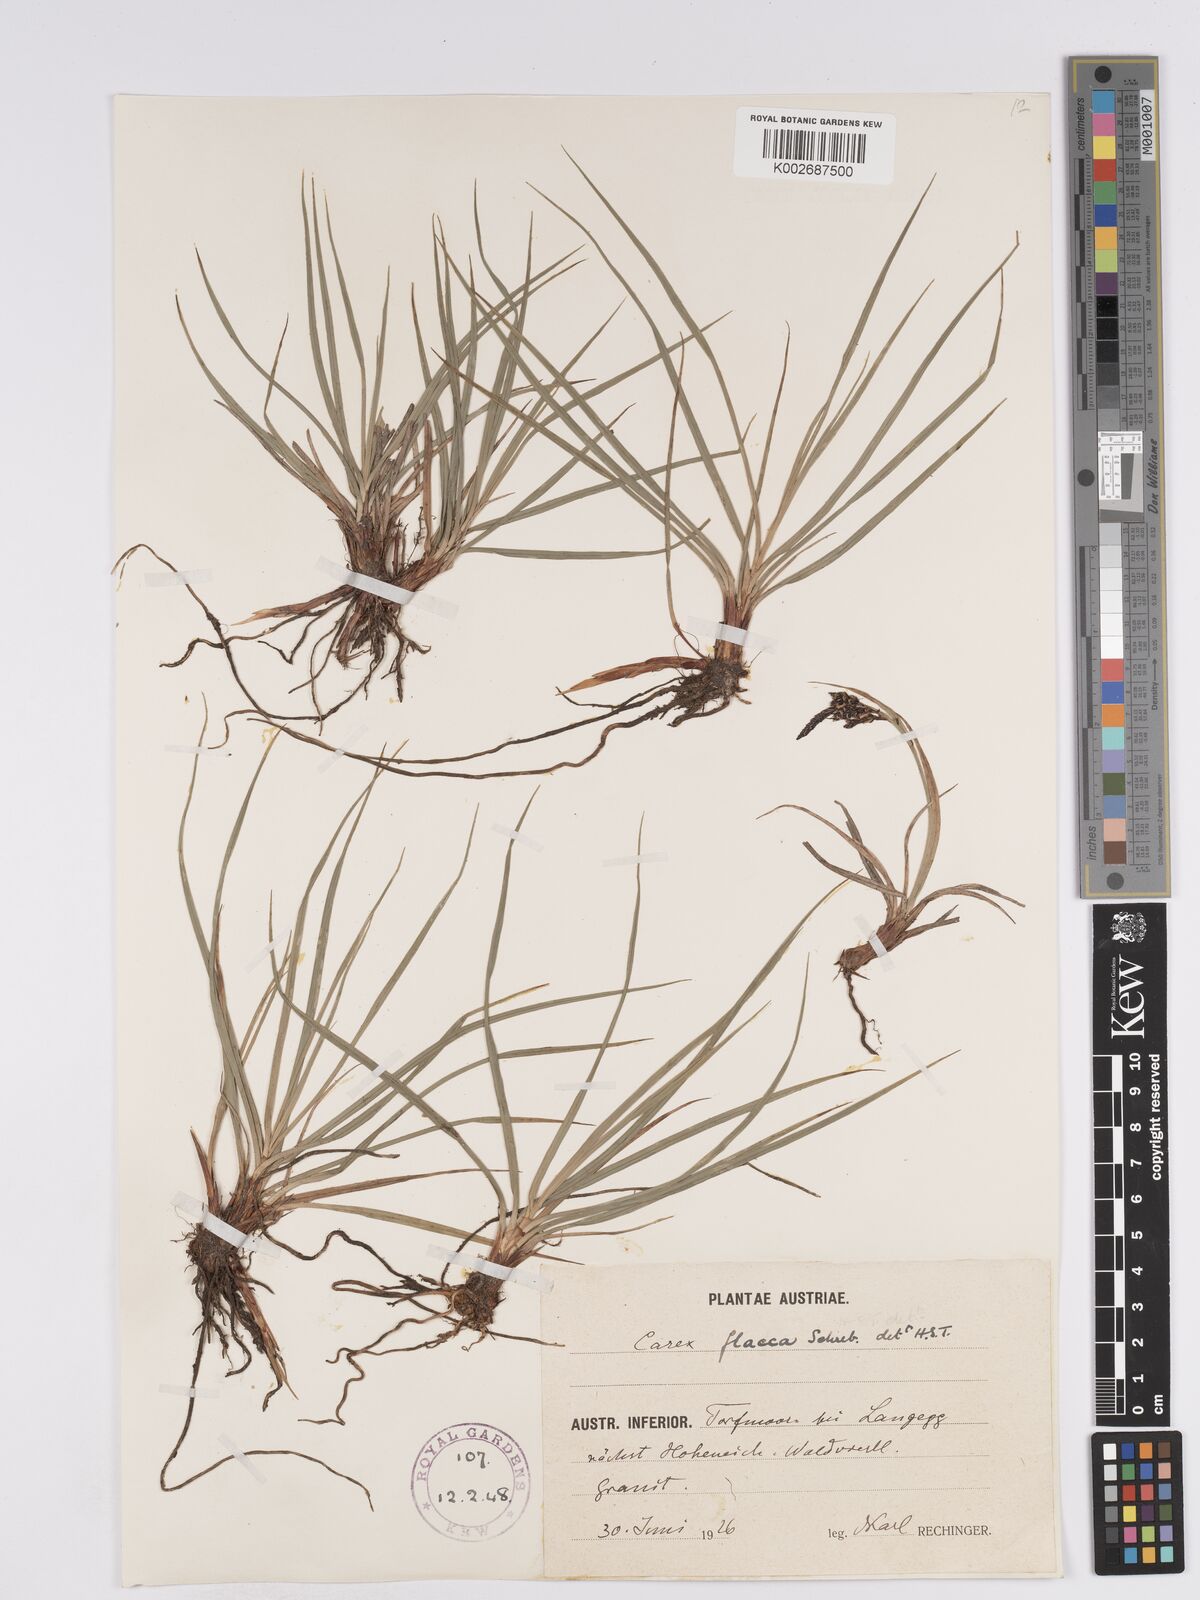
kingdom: Plantae
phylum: Tracheophyta
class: Liliopsida
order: Poales
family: Cyperaceae
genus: Carex
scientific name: Carex nigra
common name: Common sedge
